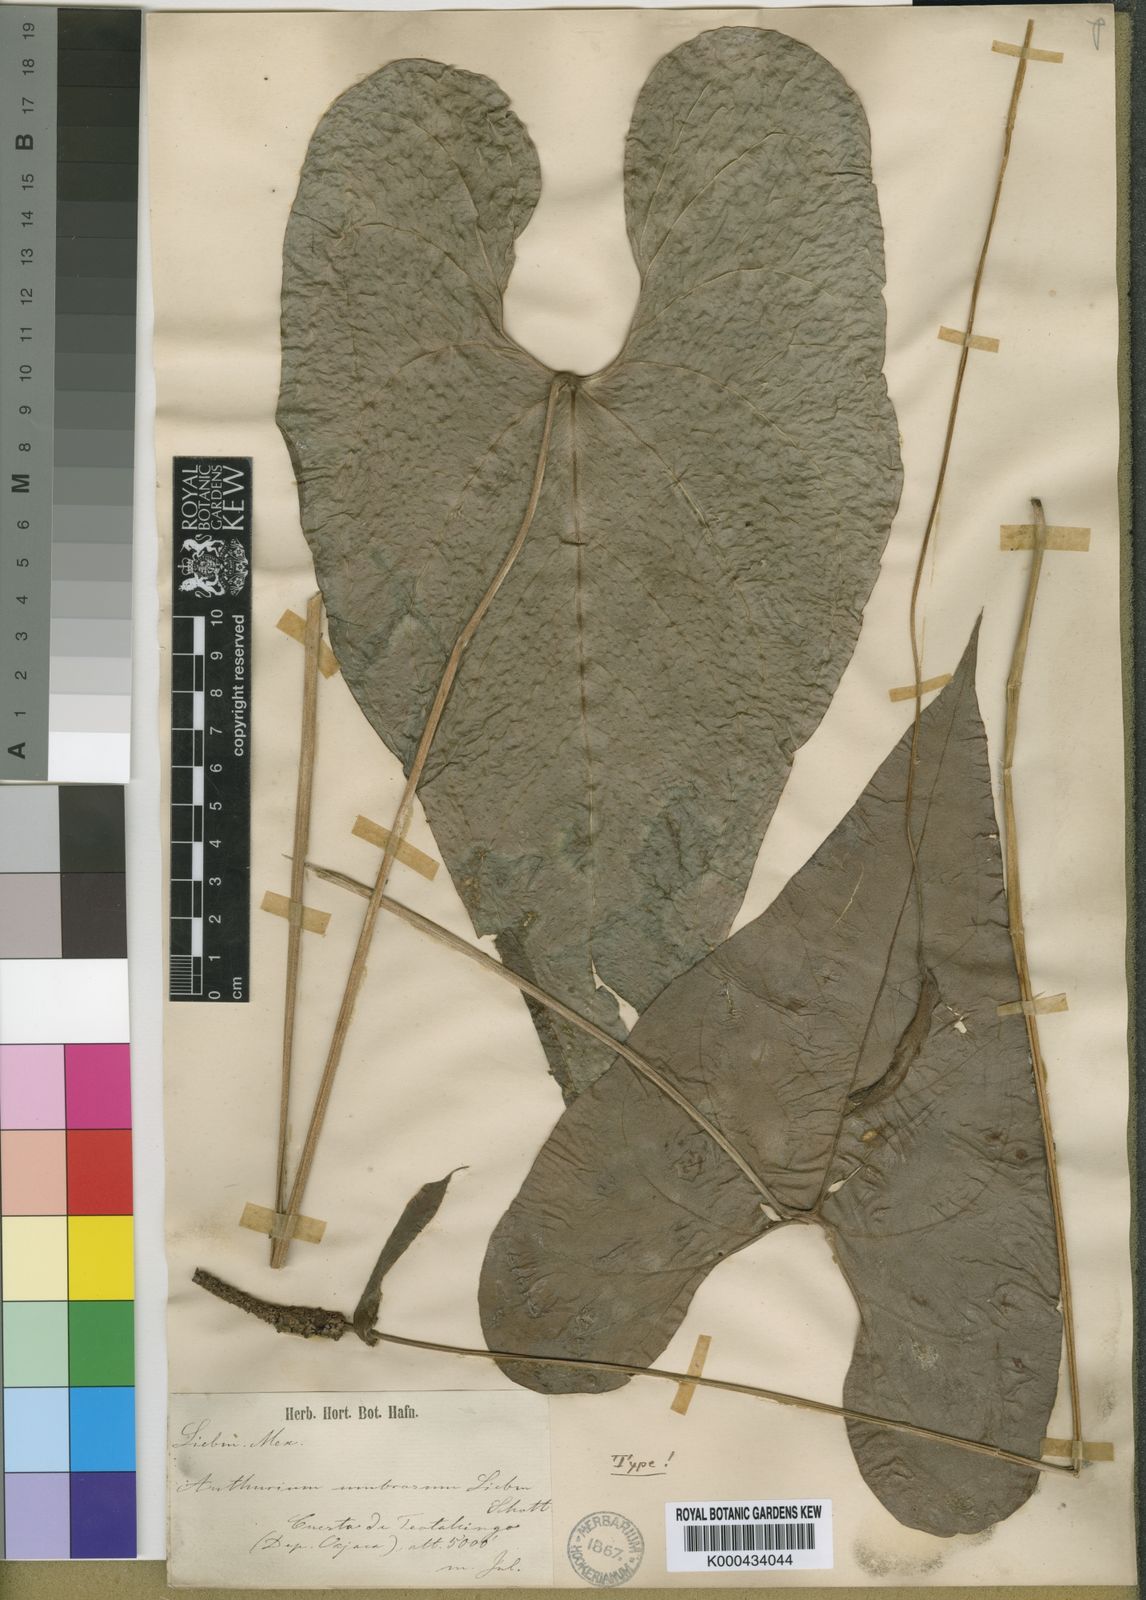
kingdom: Plantae
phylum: Tracheophyta
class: Liliopsida
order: Alismatales
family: Araceae
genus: Anthurium
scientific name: Anthurium umbrosum
